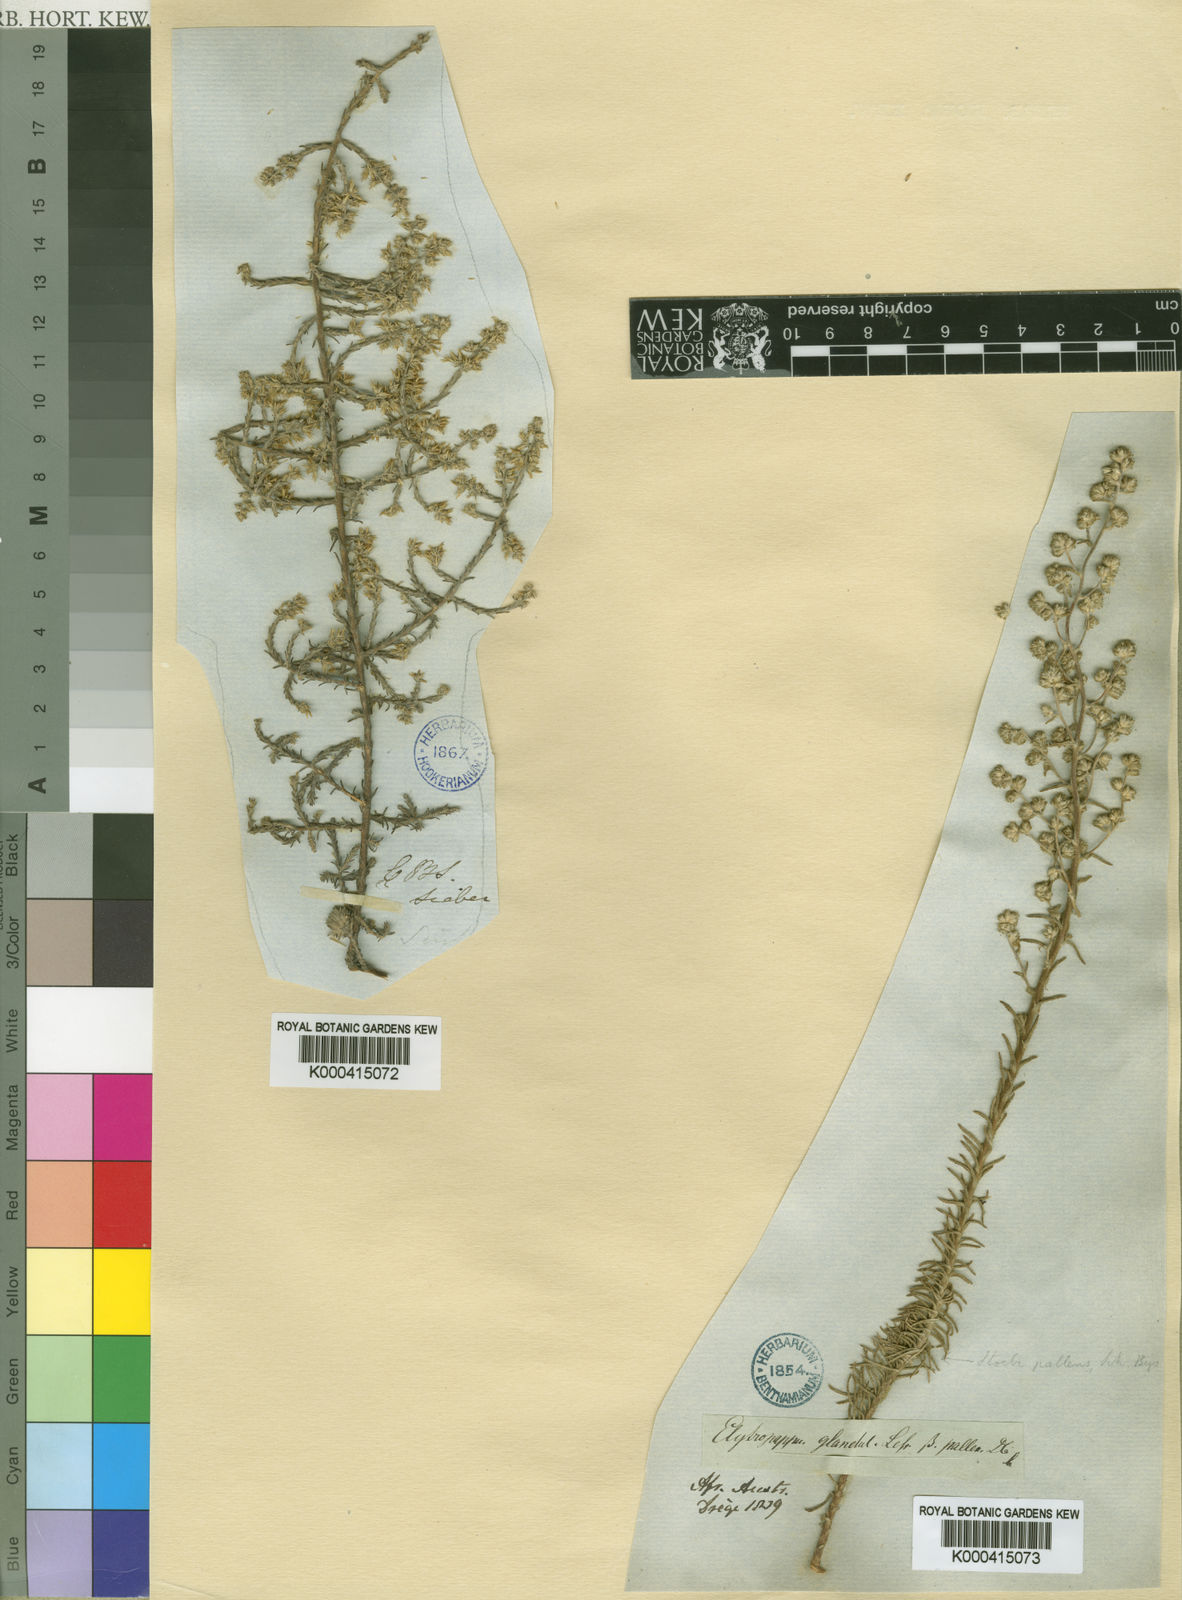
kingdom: Plantae
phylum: Tracheophyta
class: Magnoliopsida
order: Asterales
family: Asteraceae
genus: Elytropappus
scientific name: Elytropappus
